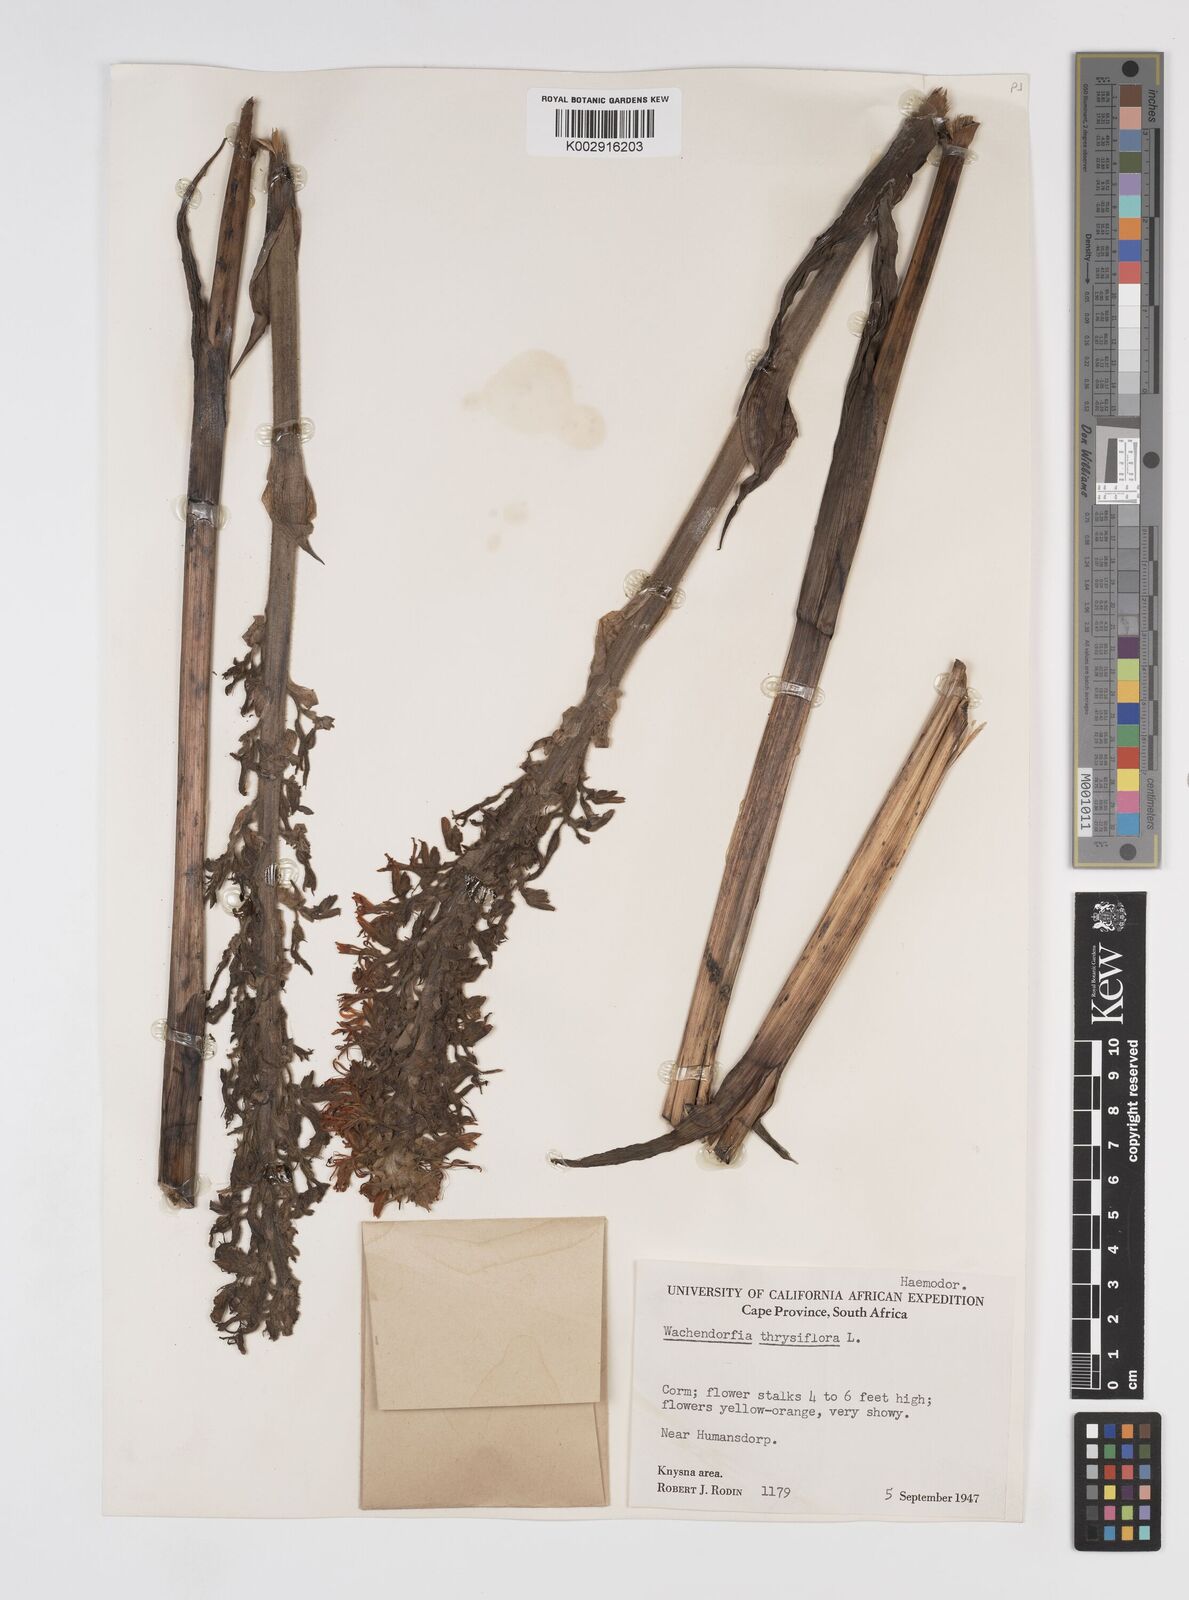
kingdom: Plantae
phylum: Tracheophyta
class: Liliopsida
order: Commelinales
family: Haemodoraceae
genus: Wachendorfia
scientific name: Wachendorfia thyrsiflora
